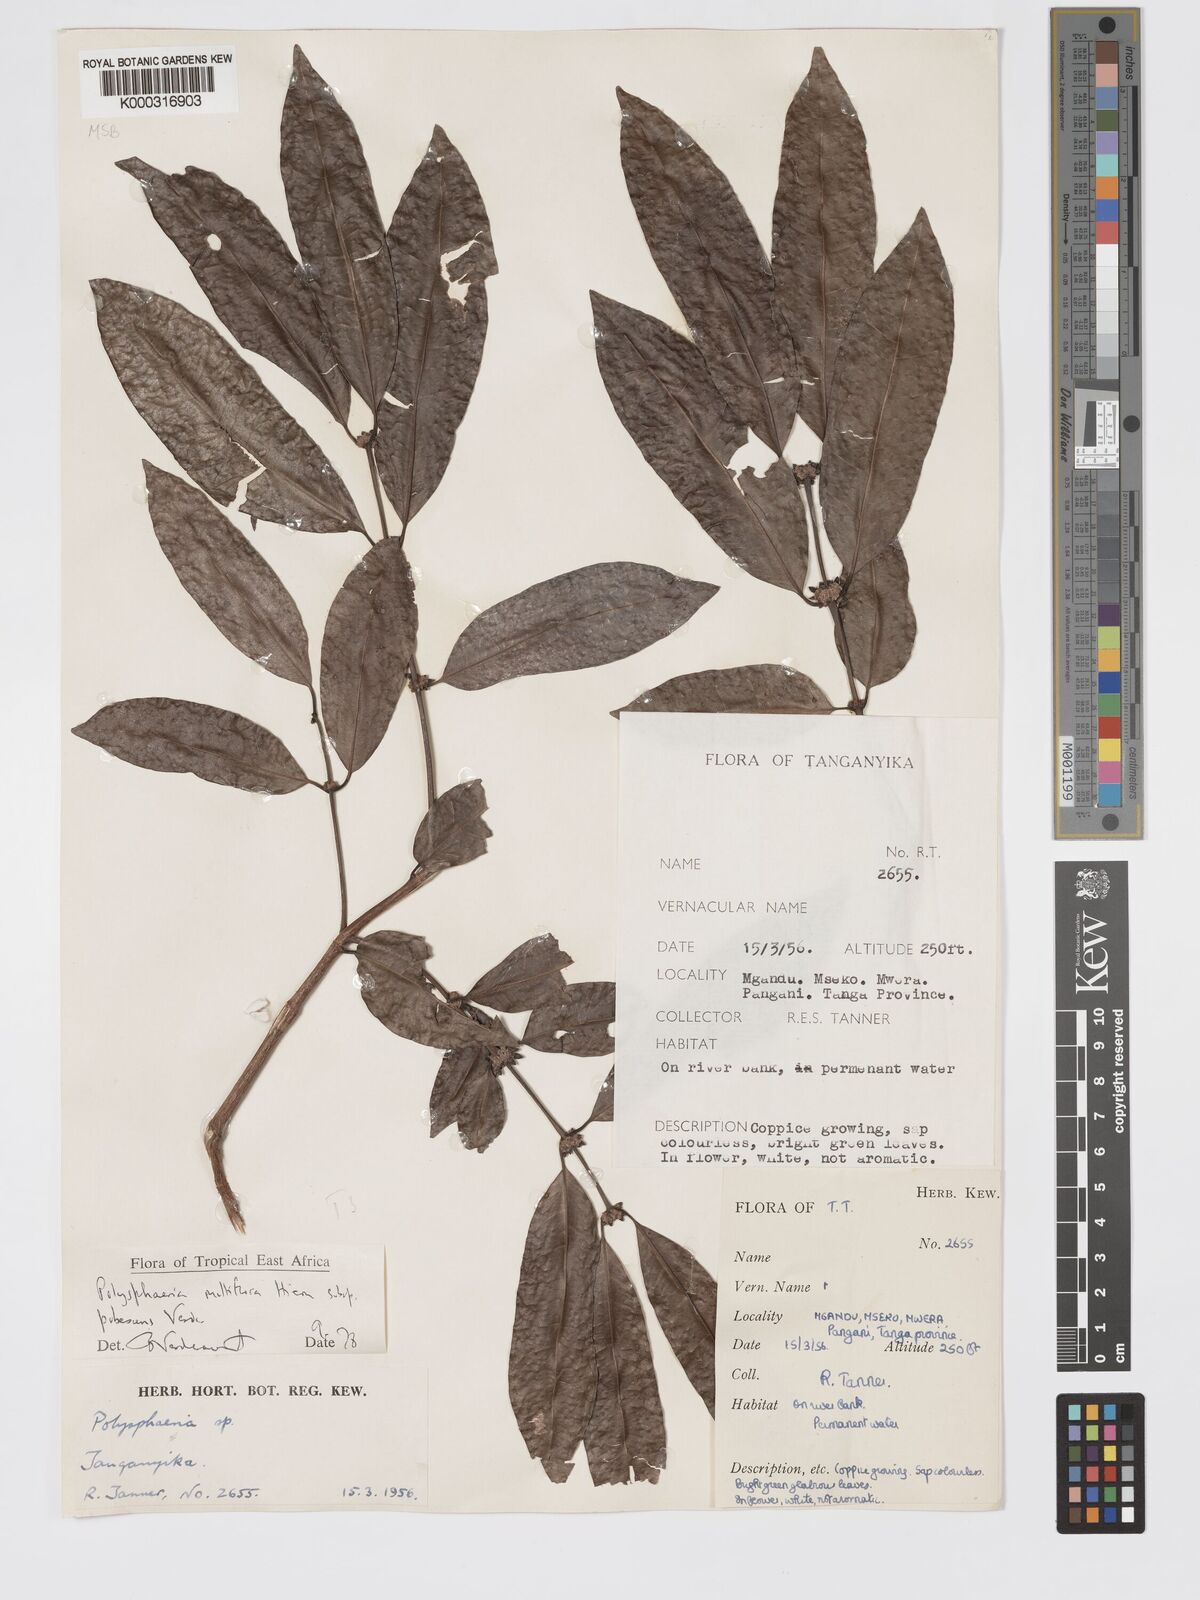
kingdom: Plantae
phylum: Tracheophyta
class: Magnoliopsida
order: Gentianales
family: Rubiaceae
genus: Polysphaeria
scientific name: Polysphaeria multiflora
